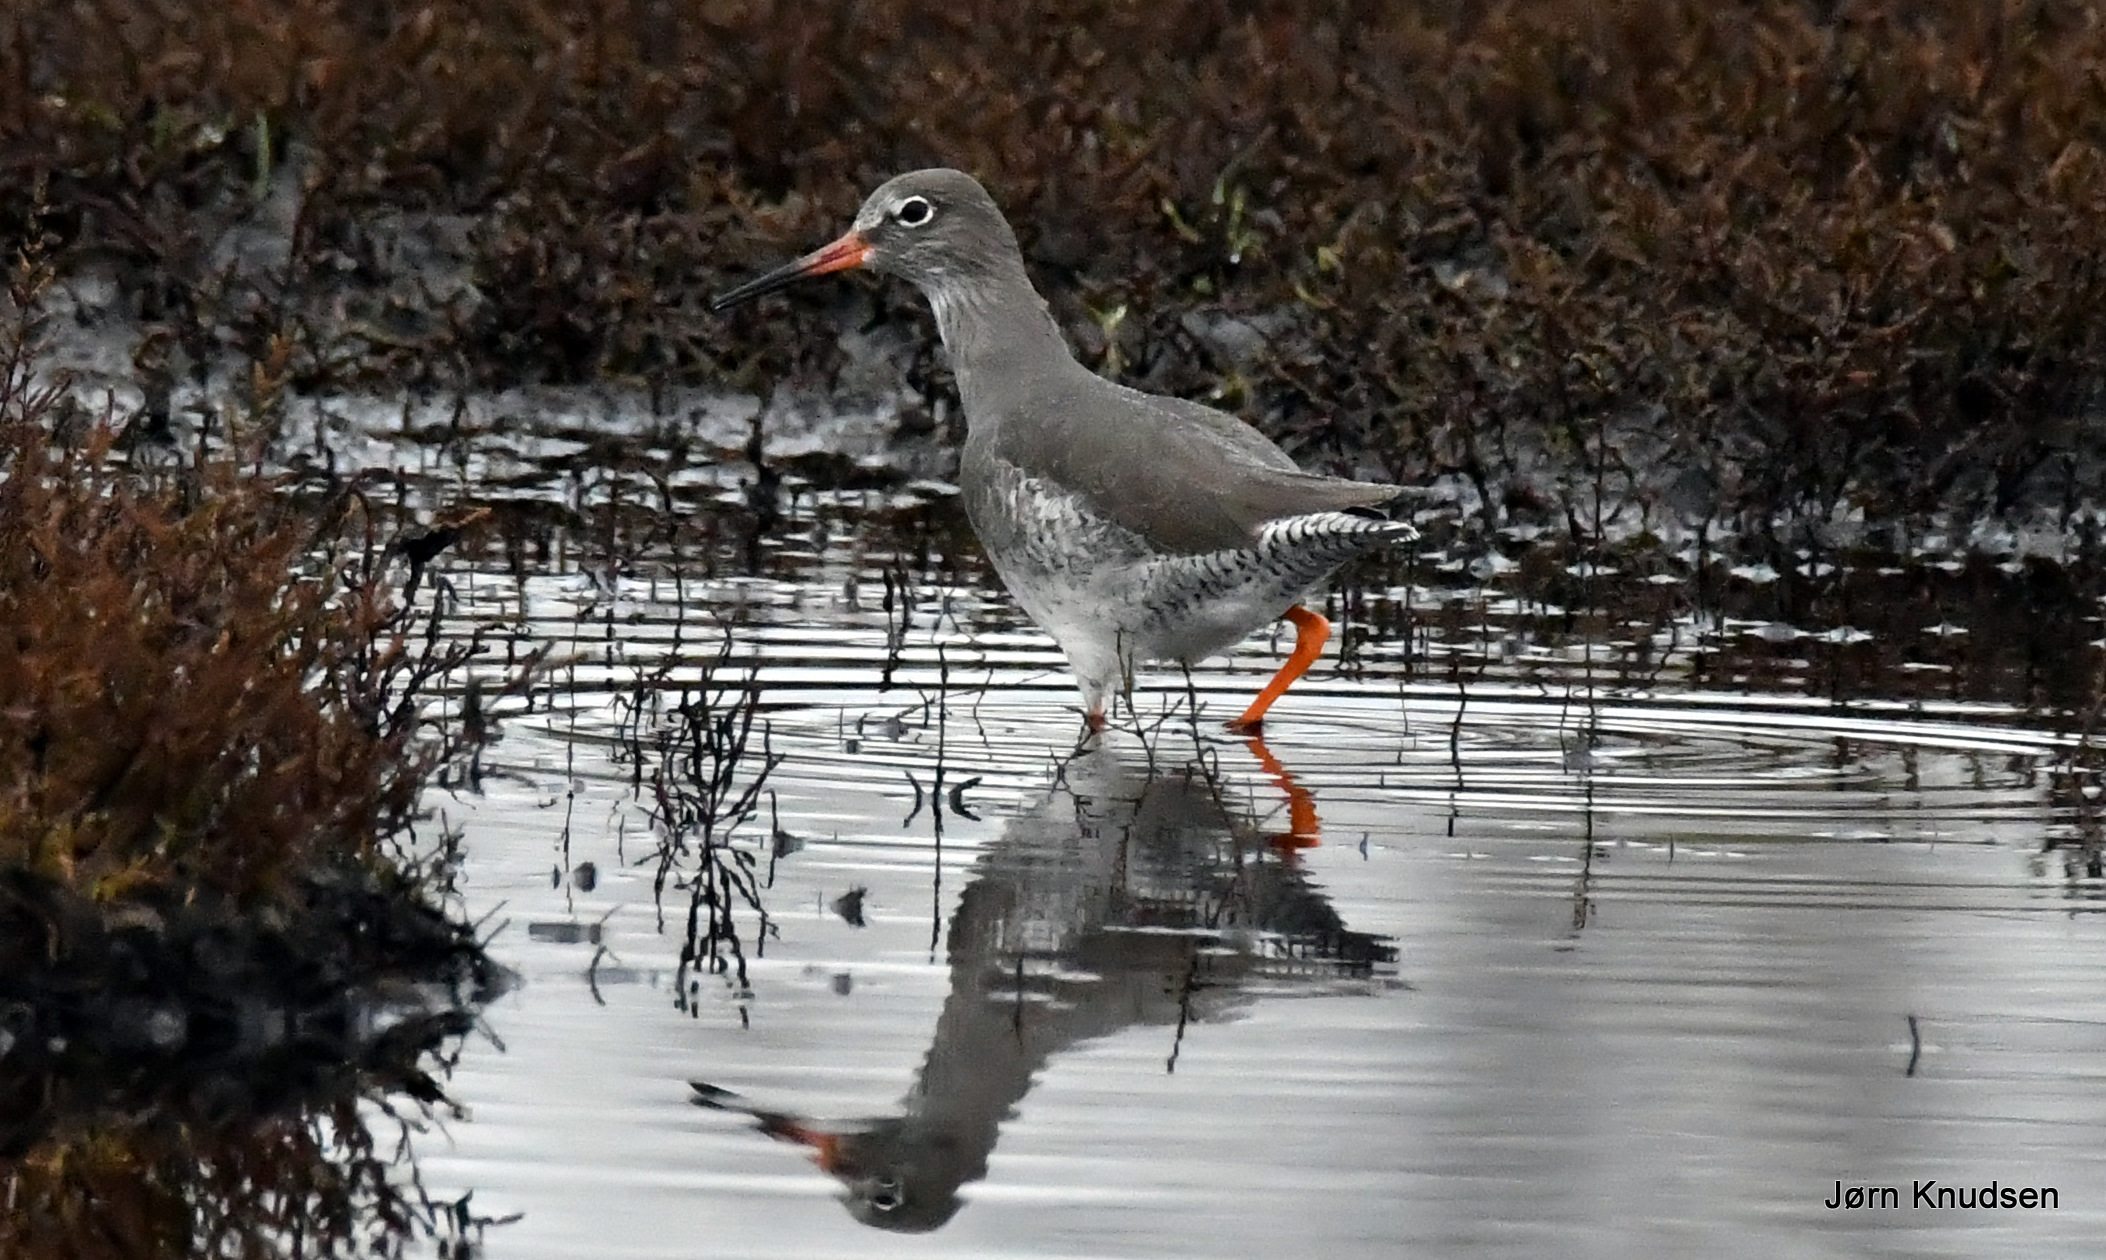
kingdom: Animalia
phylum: Chordata
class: Aves
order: Charadriiformes
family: Scolopacidae
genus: Tringa
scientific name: Tringa totanus
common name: Rødben
